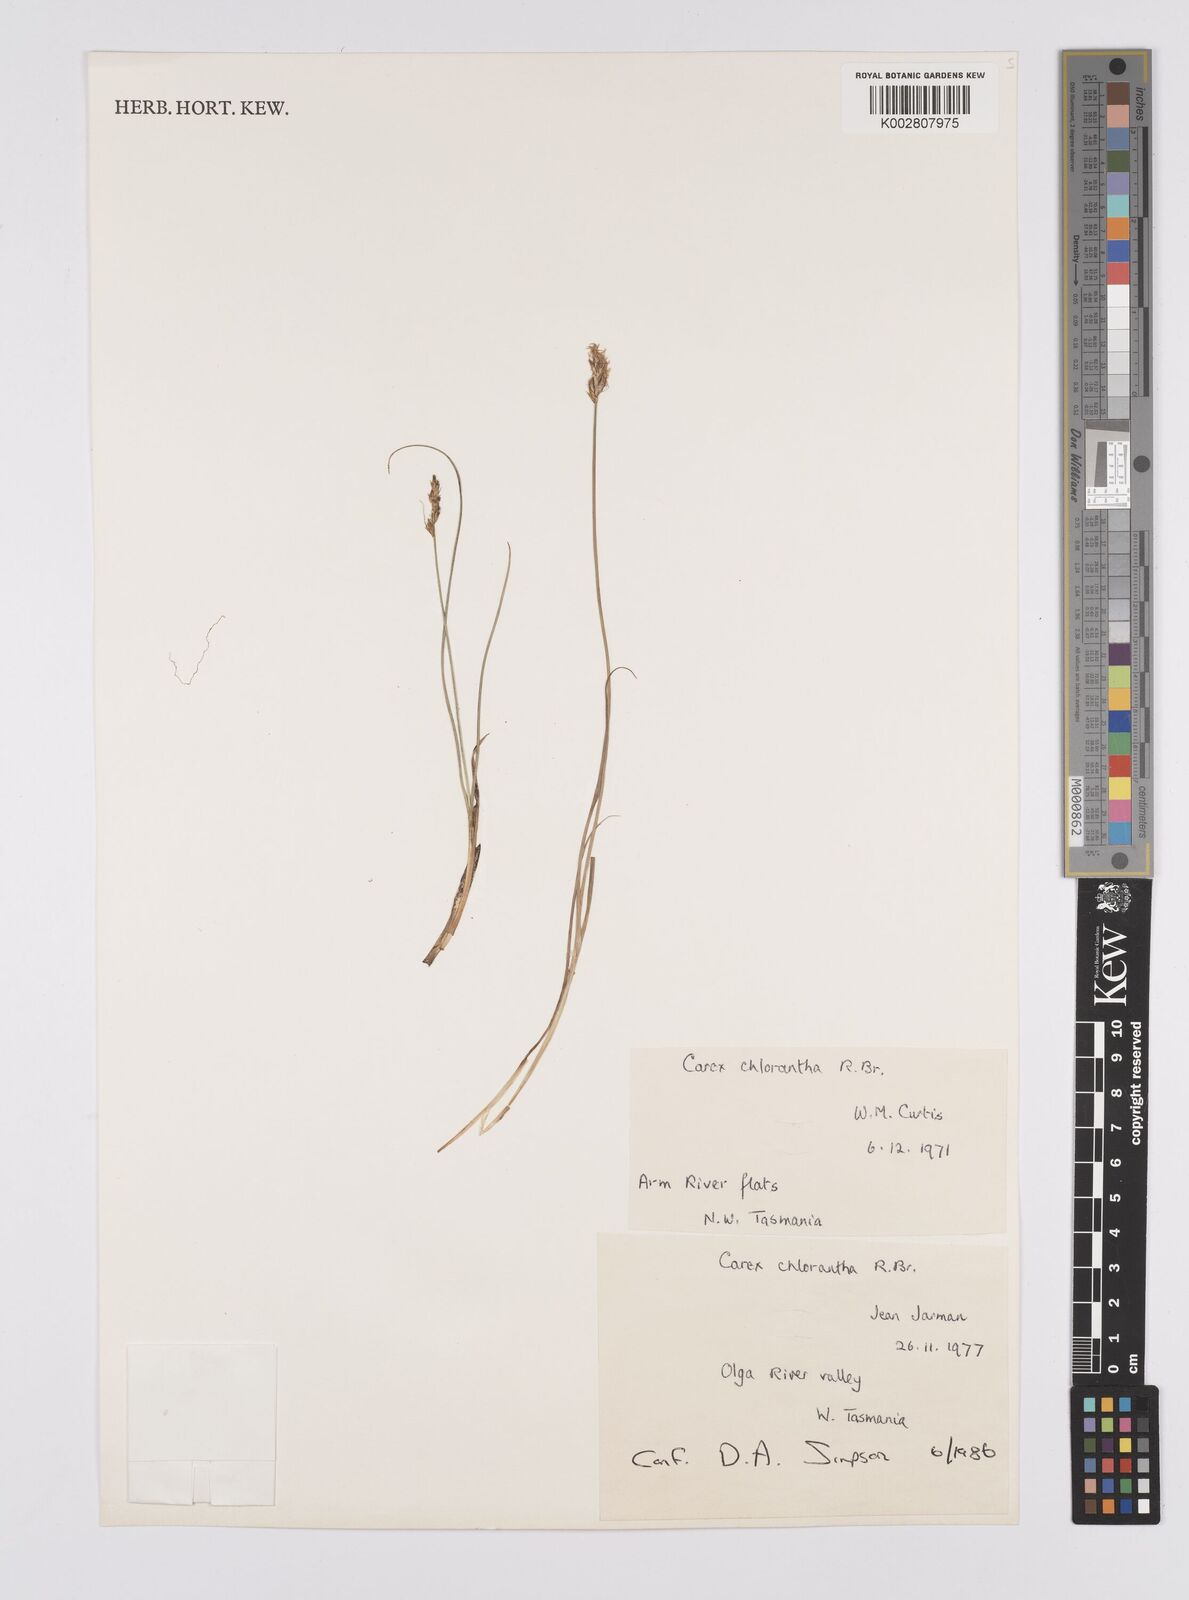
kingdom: Plantae
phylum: Tracheophyta
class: Liliopsida
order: Poales
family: Cyperaceae
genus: Carex
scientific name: Carex chlorantha
